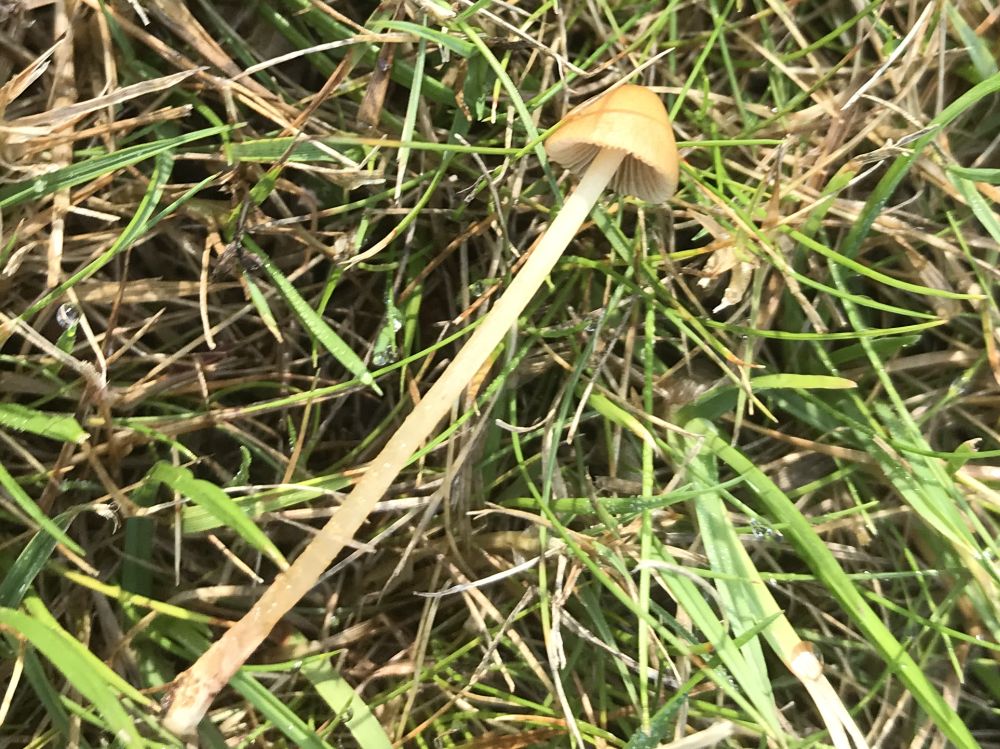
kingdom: Fungi
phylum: Basidiomycota
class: Agaricomycetes
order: Agaricales
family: Bolbitiaceae
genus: Conocybe
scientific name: Conocybe
